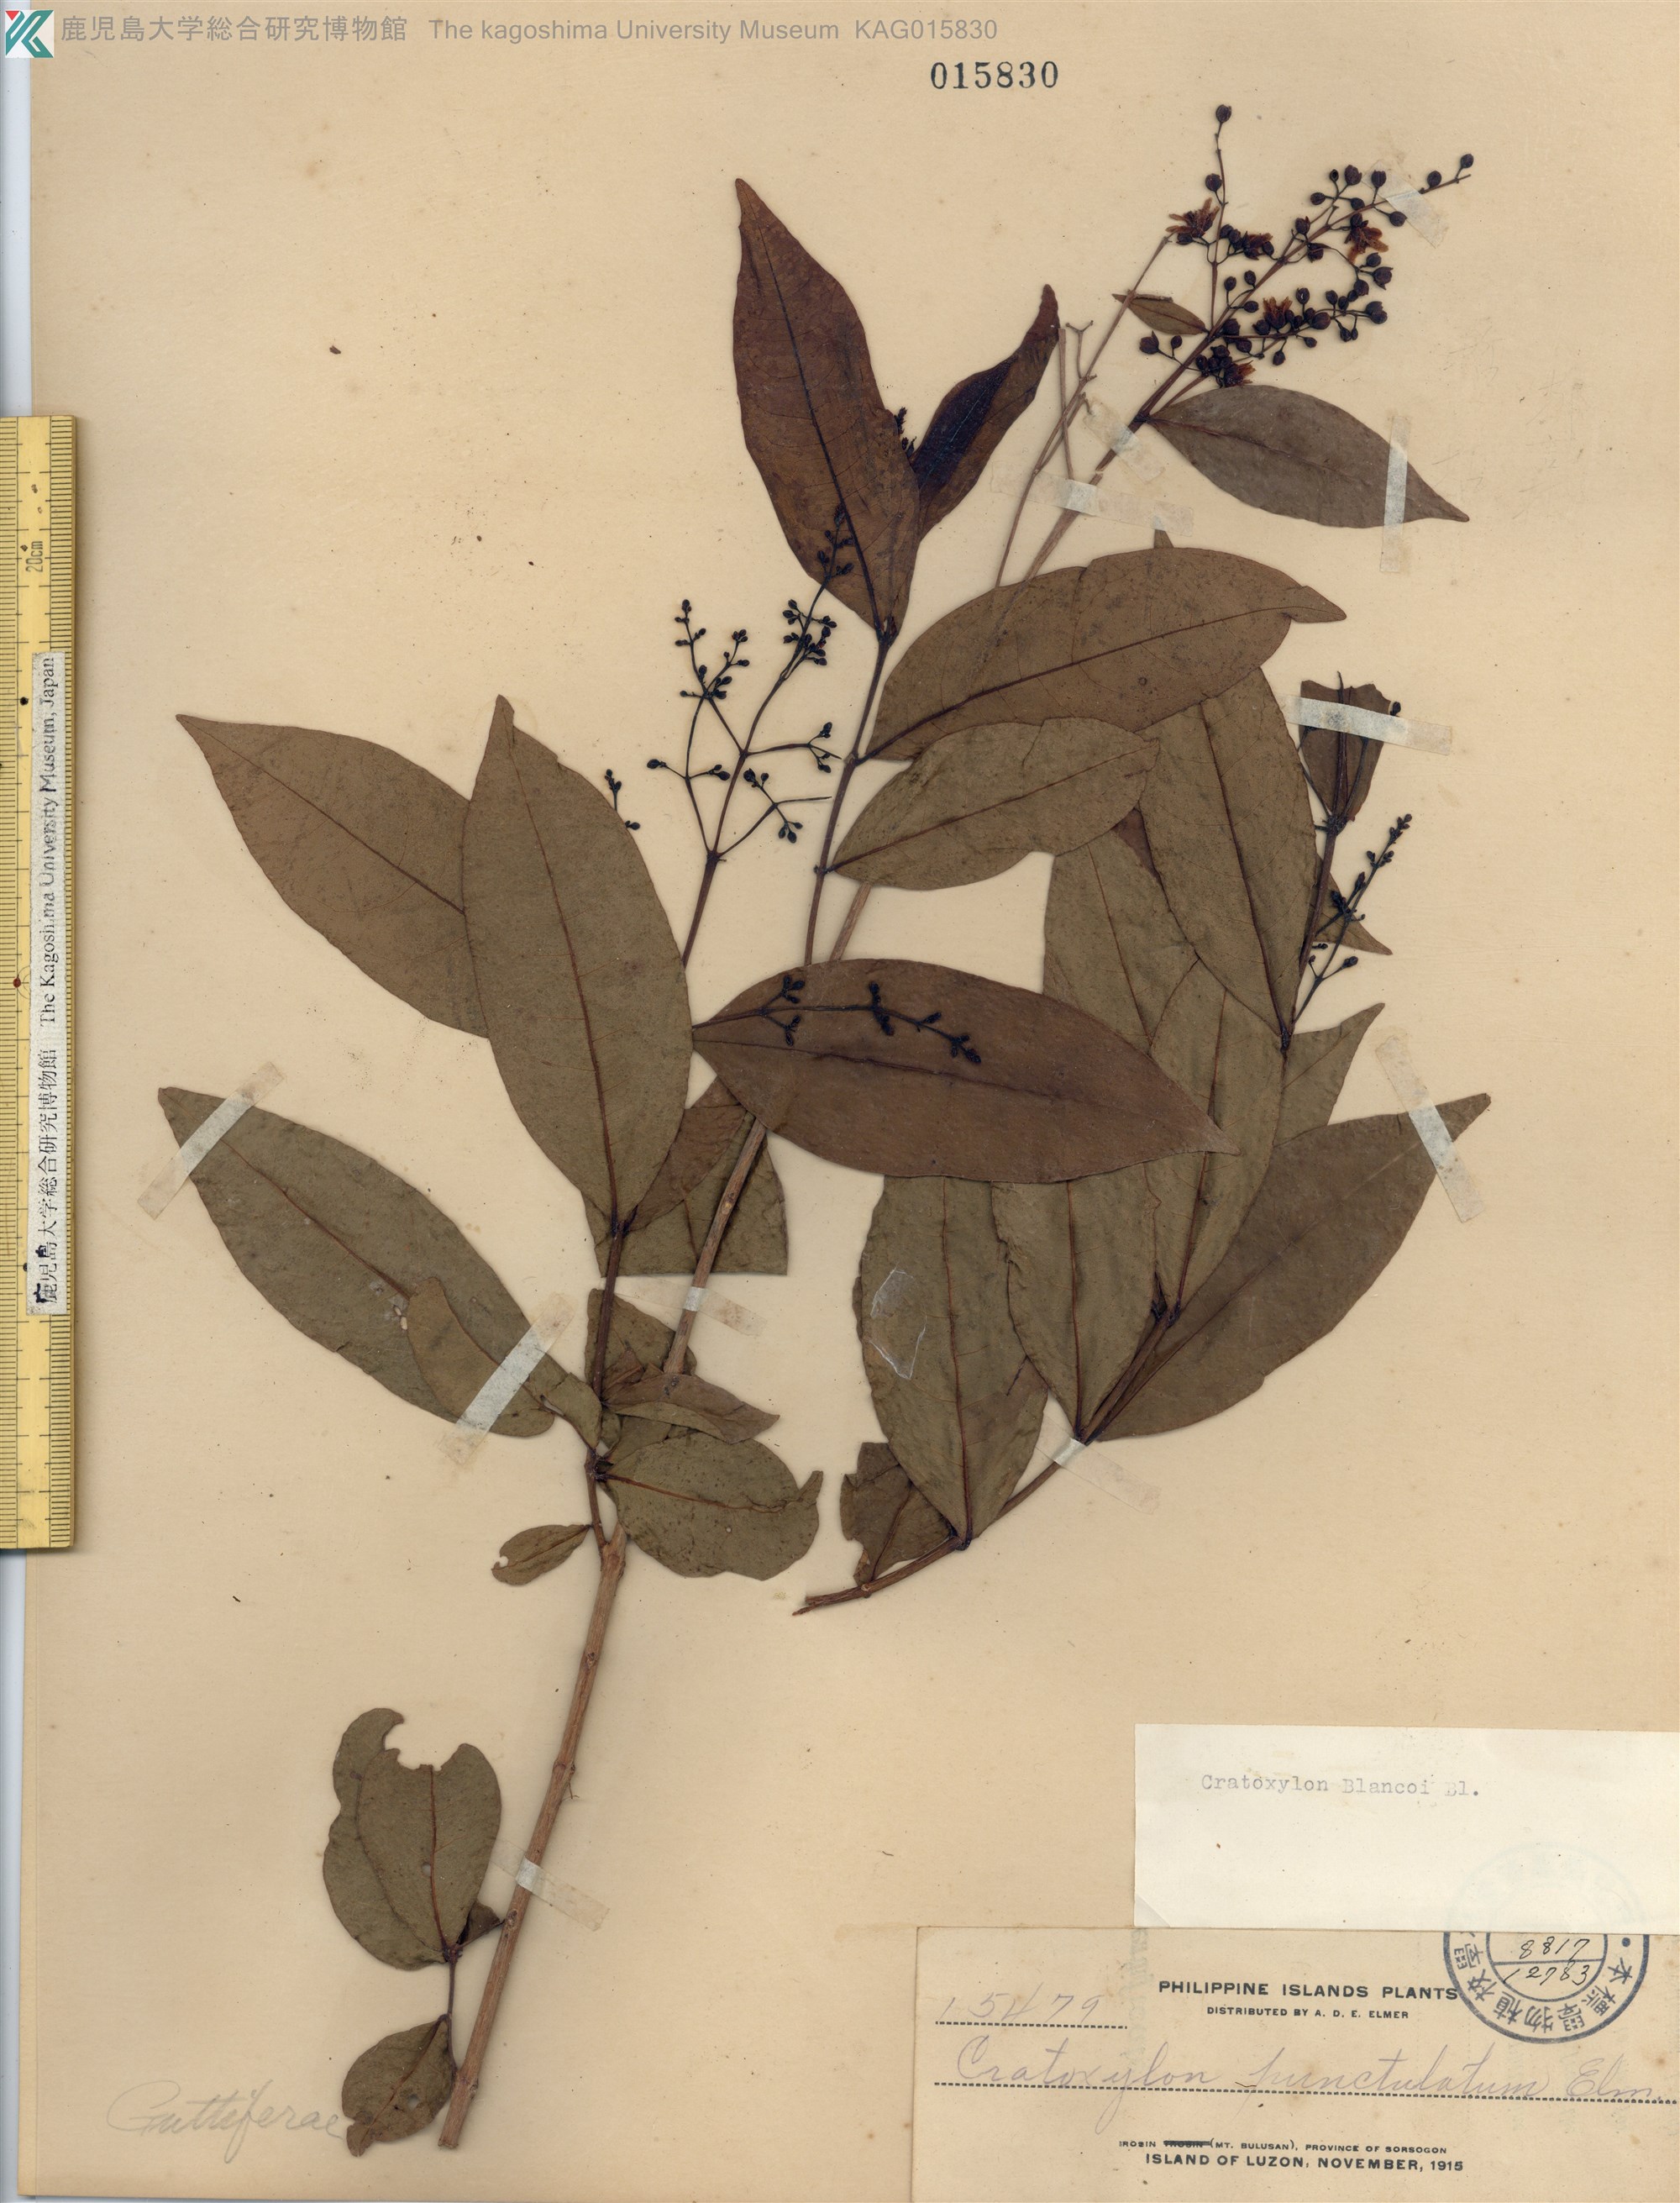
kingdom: Plantae
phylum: Tracheophyta
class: Magnoliopsida
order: Malpighiales
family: Hypericaceae
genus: Cratoxylum
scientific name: Cratoxylum sumatranum
